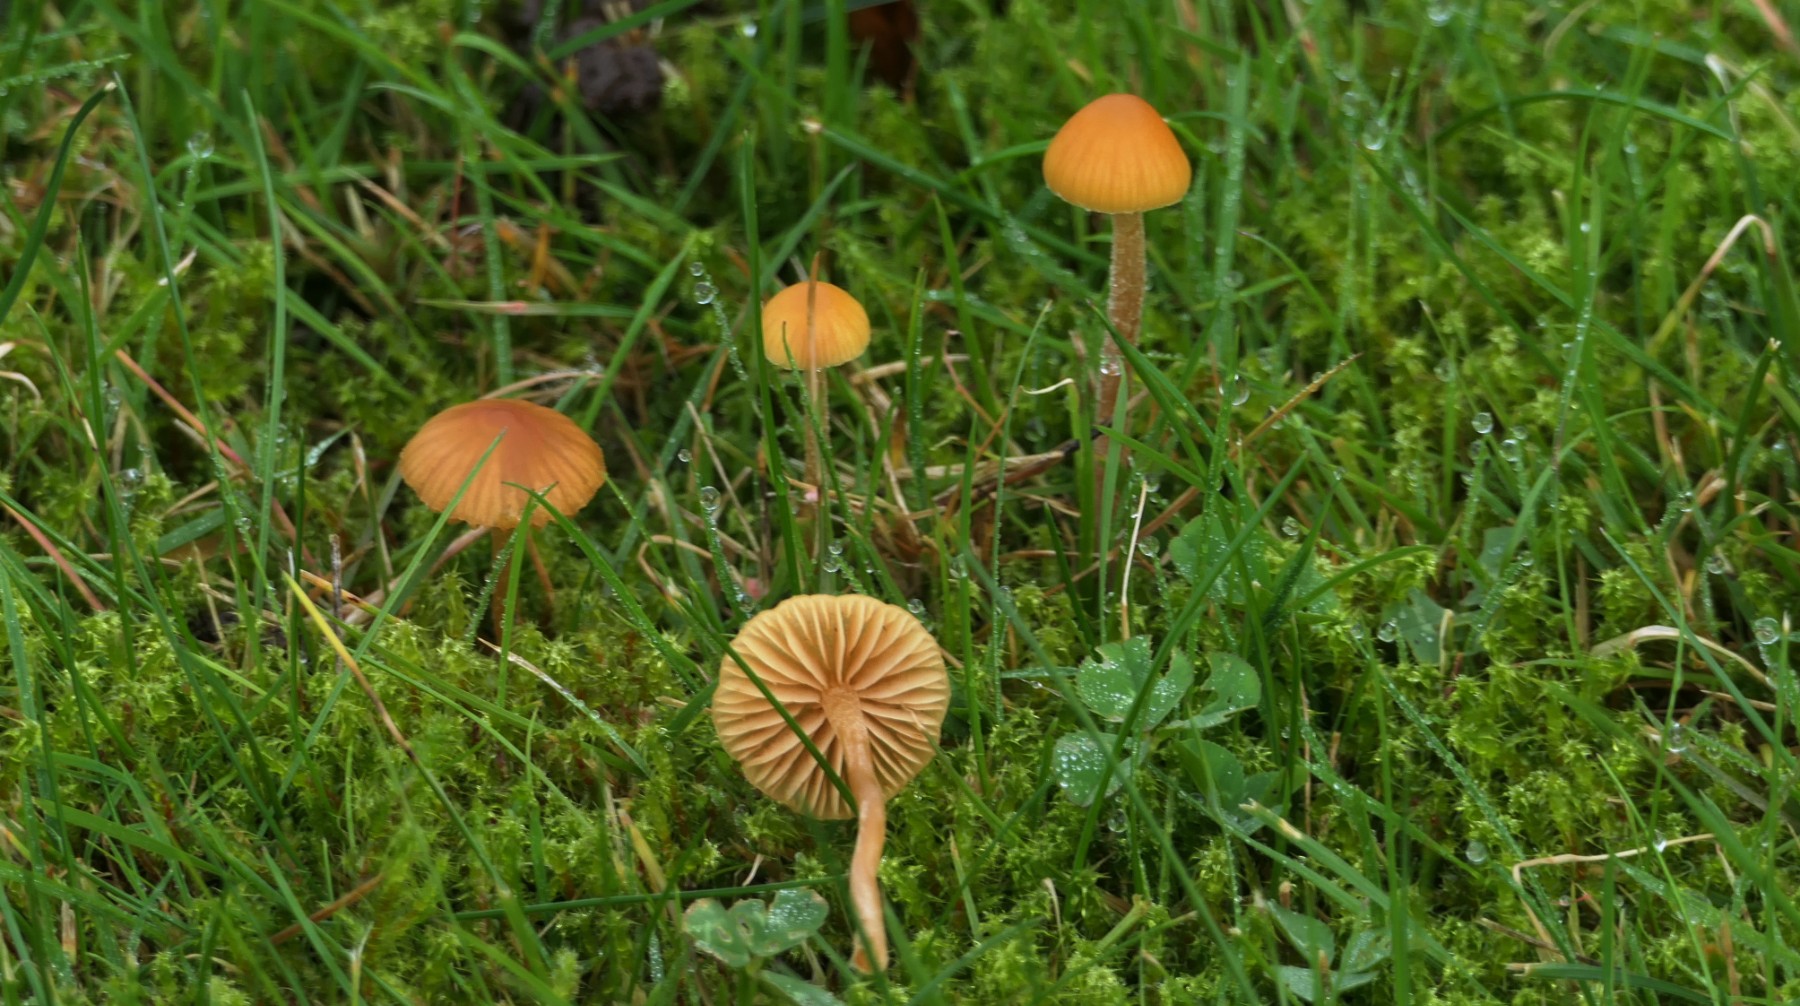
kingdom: Fungi
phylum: Basidiomycota
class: Agaricomycetes
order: Agaricales
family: Hymenogastraceae
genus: Galerina
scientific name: Galerina
